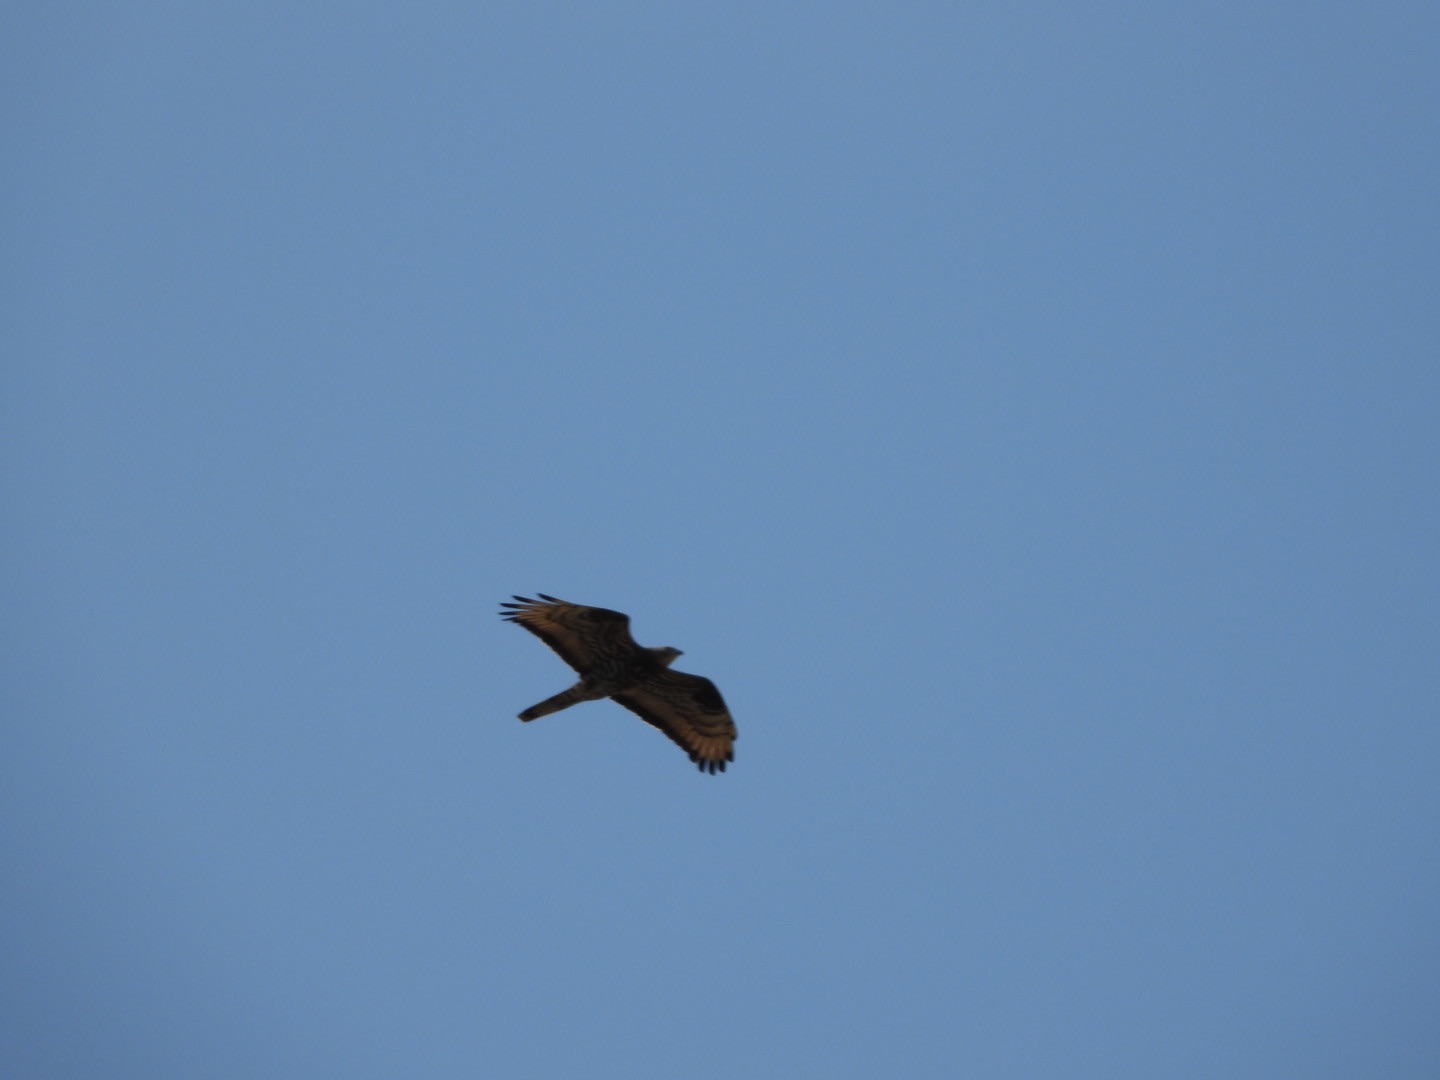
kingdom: Animalia
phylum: Chordata
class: Aves
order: Accipitriformes
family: Accipitridae
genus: Pernis
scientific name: Pernis apivorus
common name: Hvepsevåge
